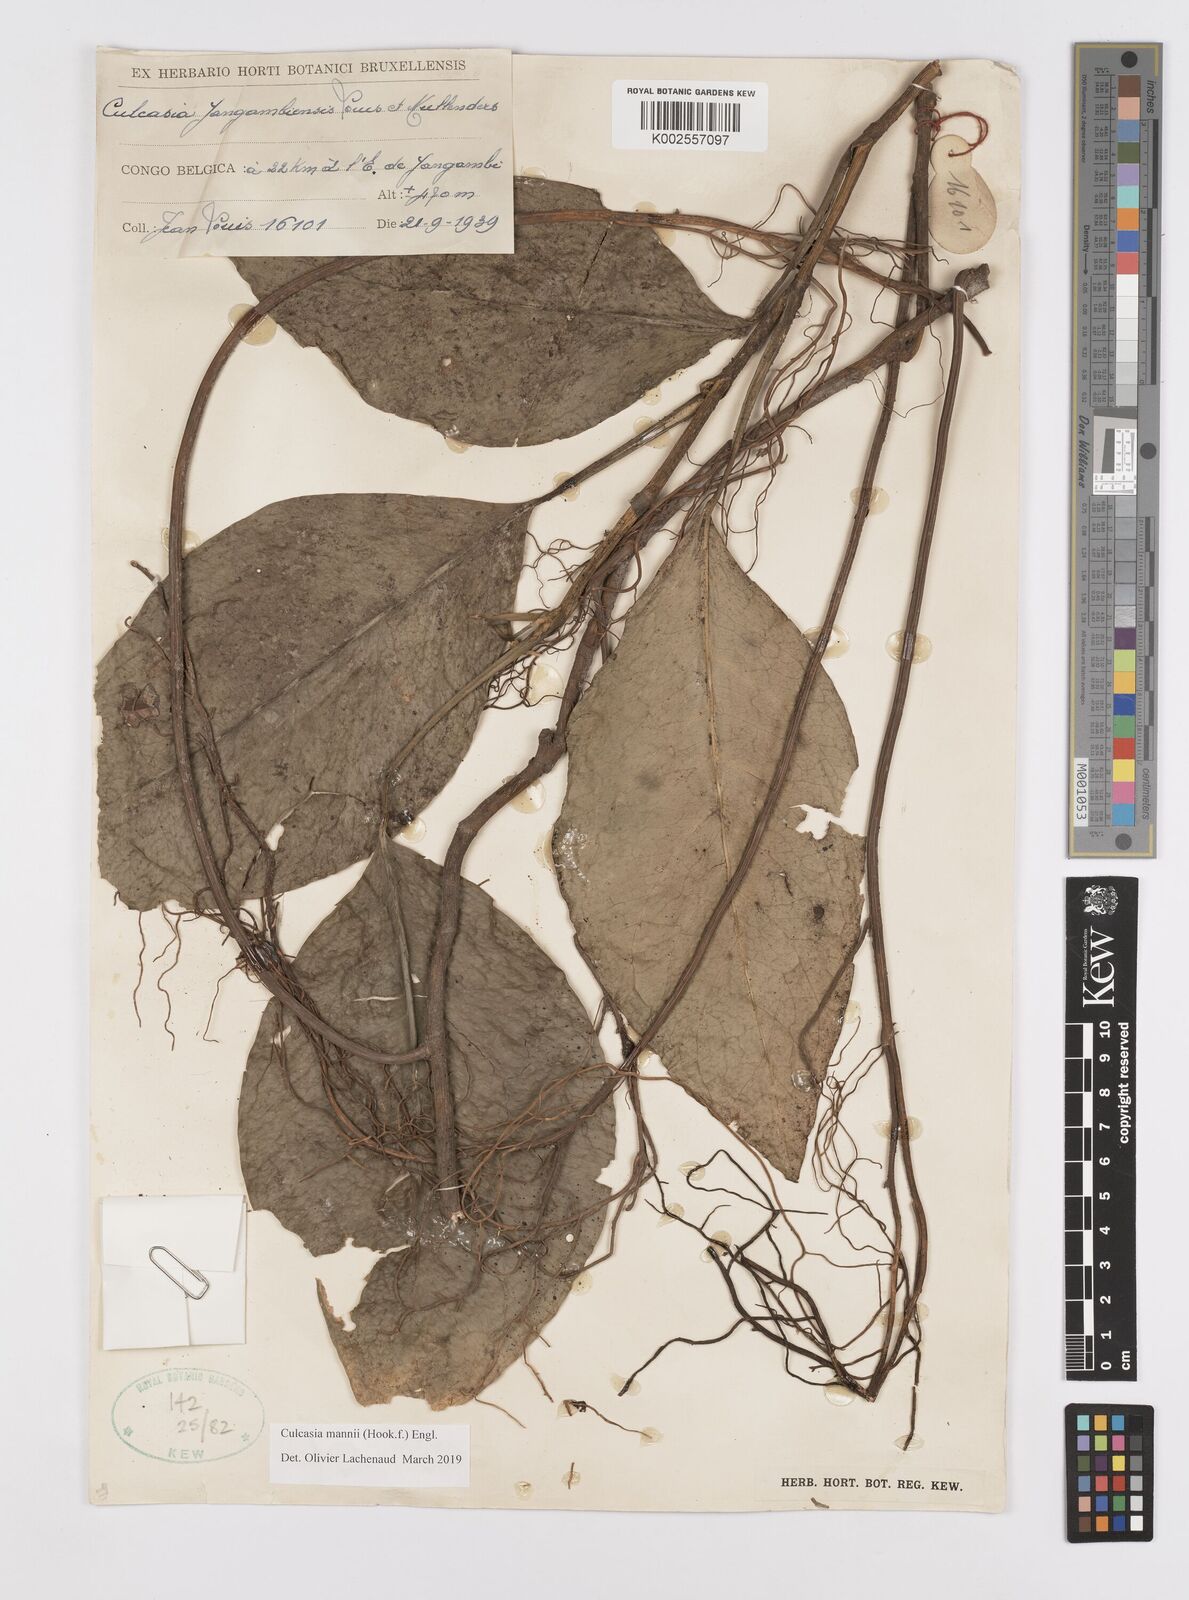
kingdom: Plantae
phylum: Tracheophyta
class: Liliopsida
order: Alismatales
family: Araceae
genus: Culcasia
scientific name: Culcasia mannii
